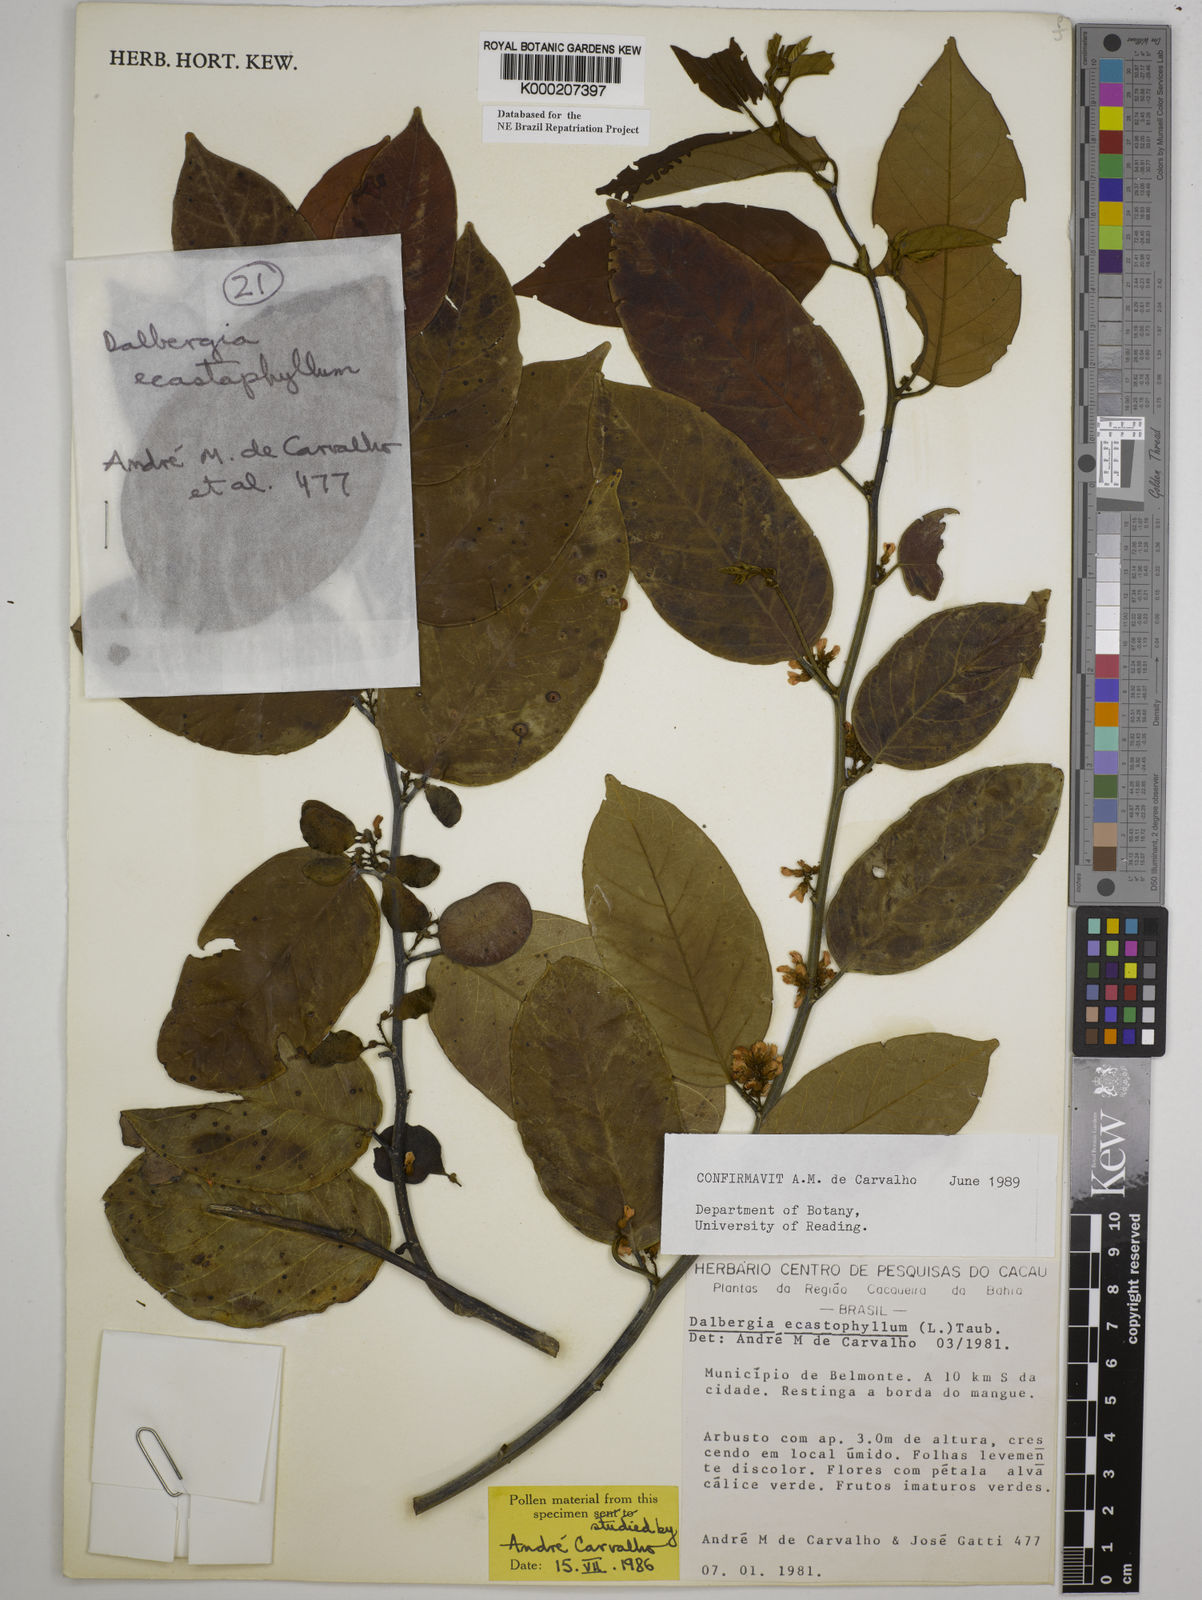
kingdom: Plantae
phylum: Tracheophyta
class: Magnoliopsida
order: Fabales
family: Fabaceae
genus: Dalbergia
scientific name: Dalbergia
